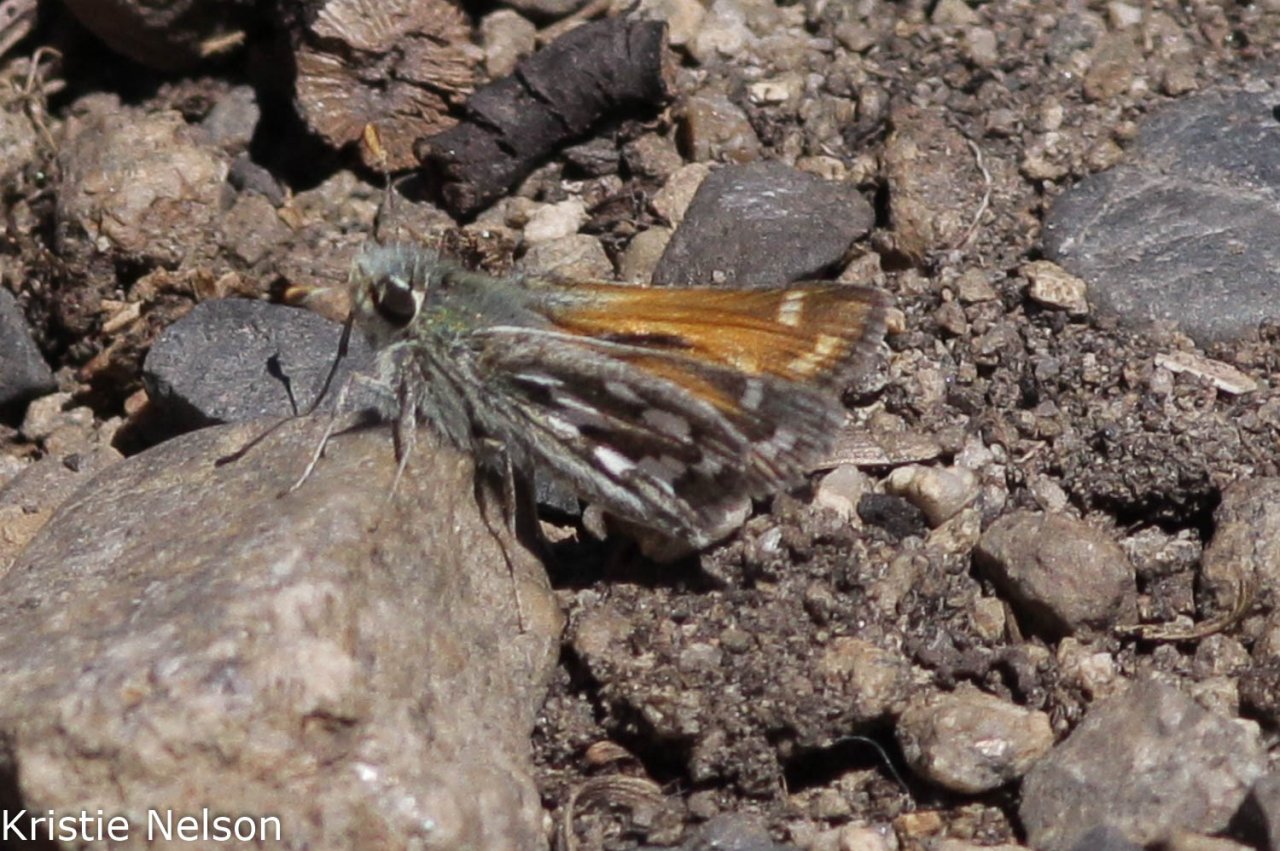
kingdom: Animalia
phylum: Arthropoda
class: Insecta
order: Lepidoptera
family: Hesperiidae
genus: Hesperia
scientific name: Hesperia nevada
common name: Nevada Skipper
